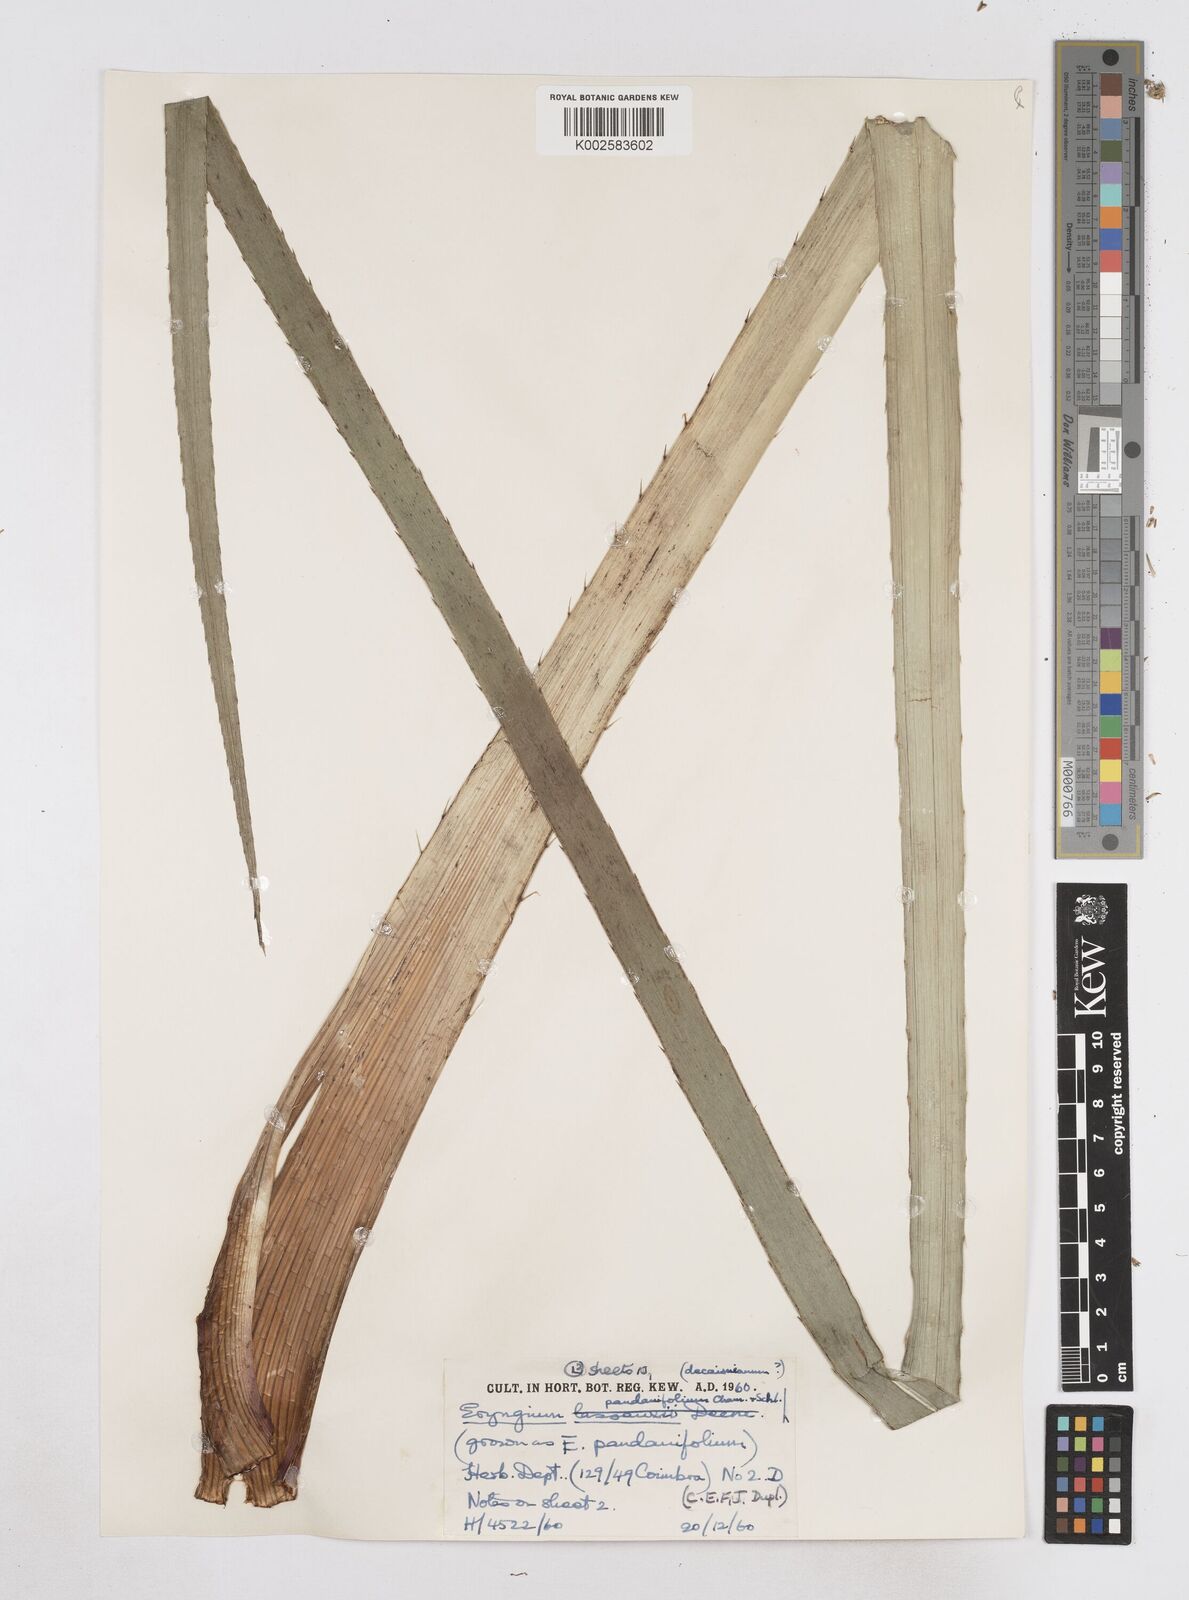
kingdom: Plantae
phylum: Tracheophyta
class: Magnoliopsida
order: Apiales
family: Apiaceae
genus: Eryngium
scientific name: Eryngium pandanifolium
